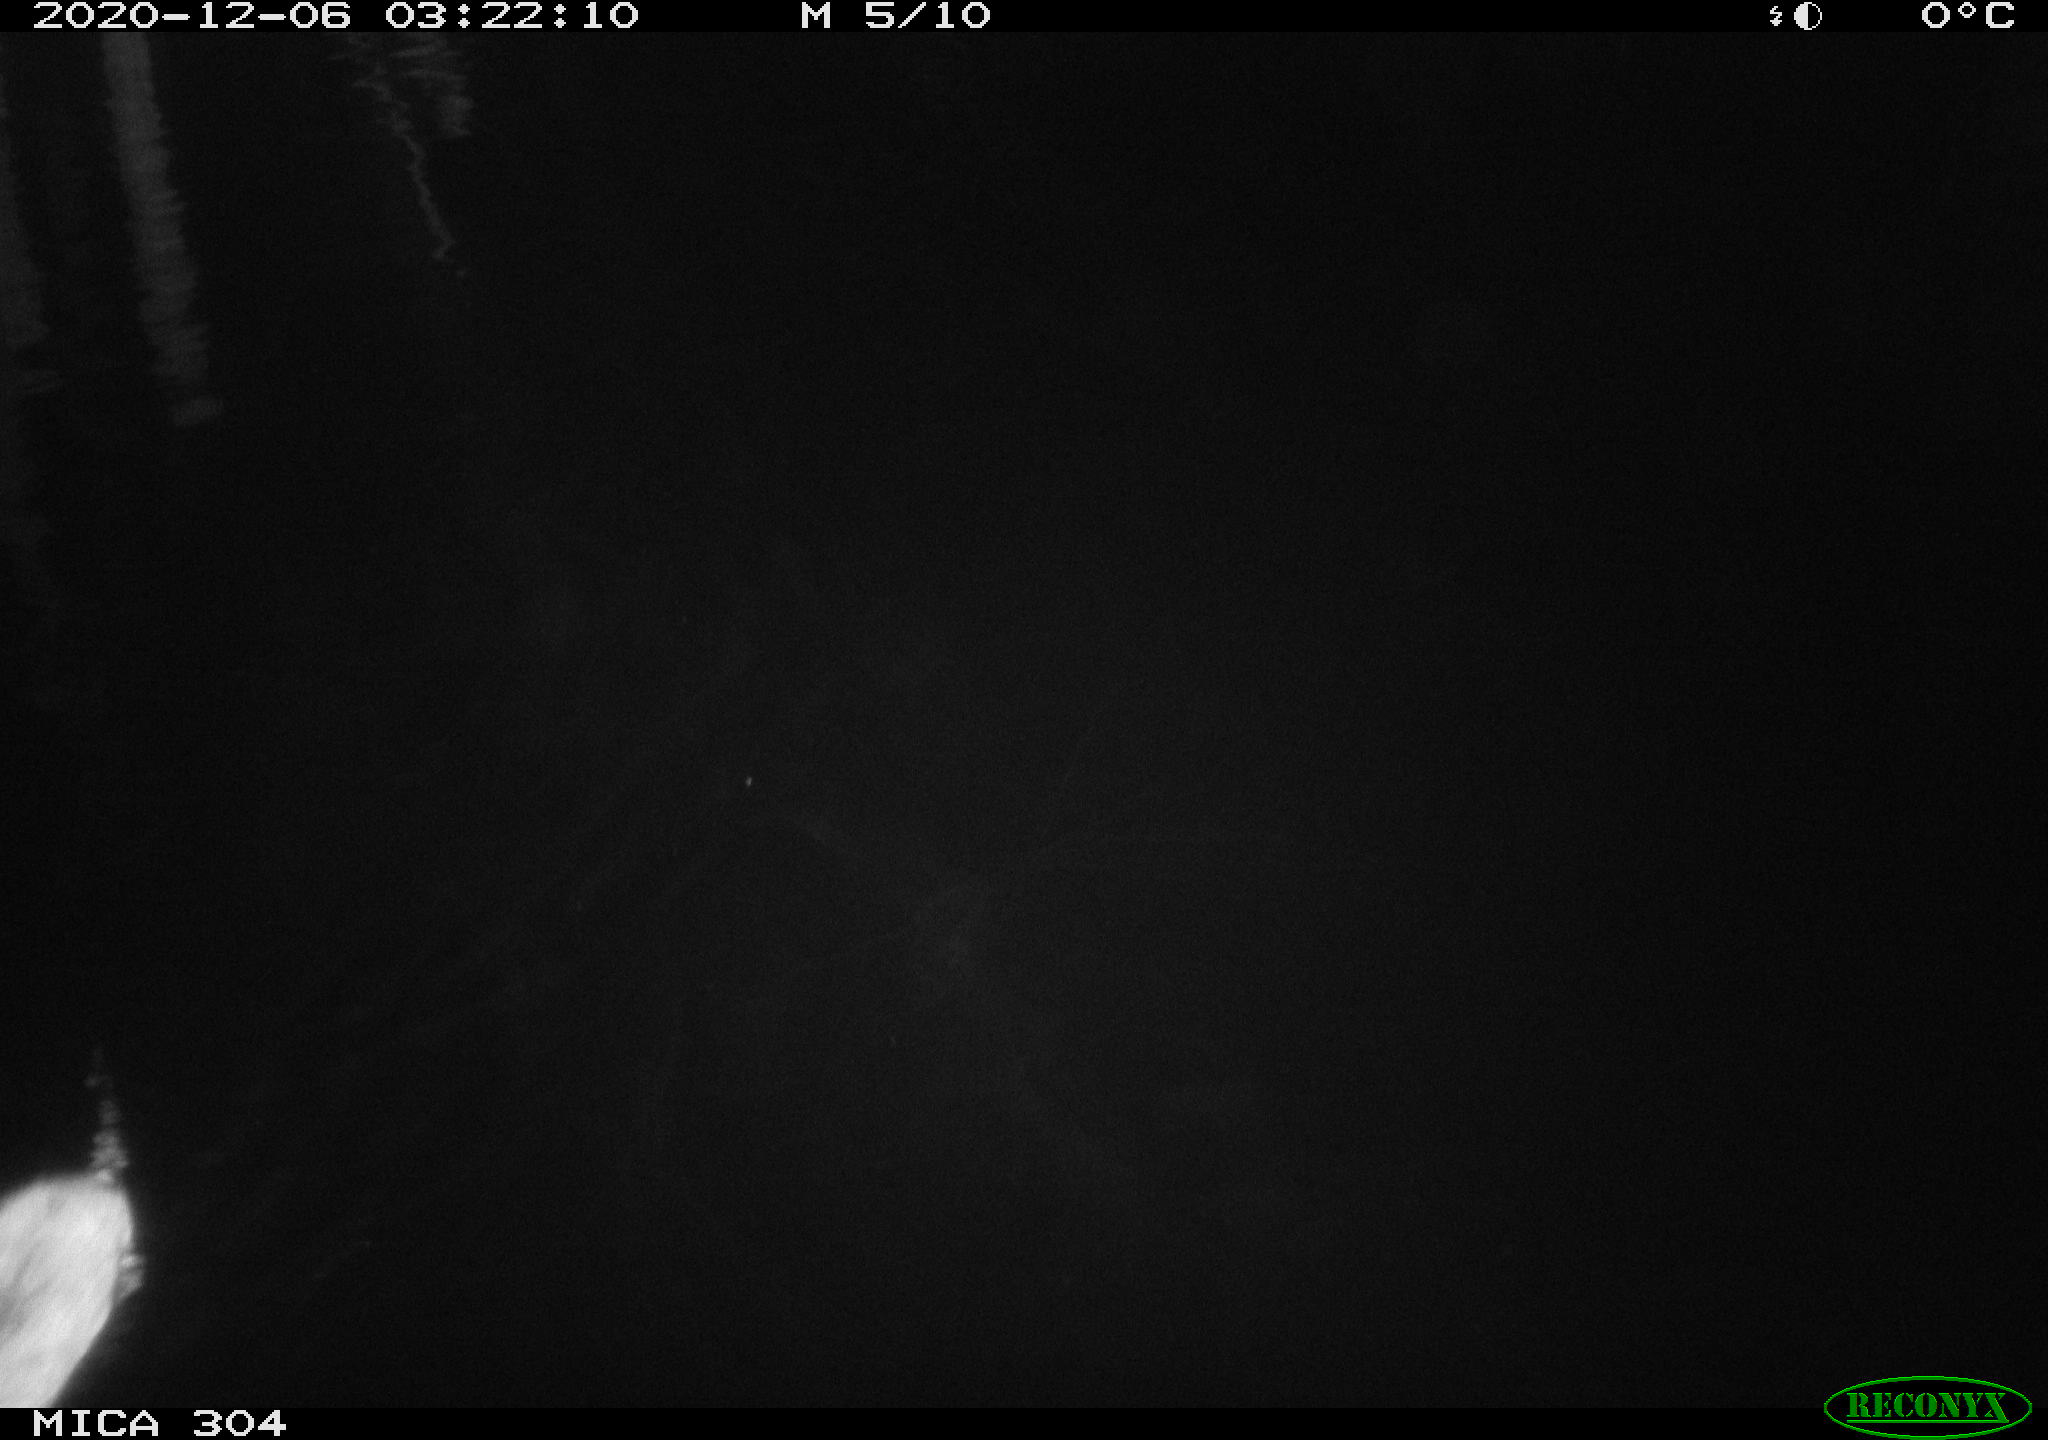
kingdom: Animalia
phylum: Chordata
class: Mammalia
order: Rodentia
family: Muridae
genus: Rattus
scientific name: Rattus norvegicus
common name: Brown rat
